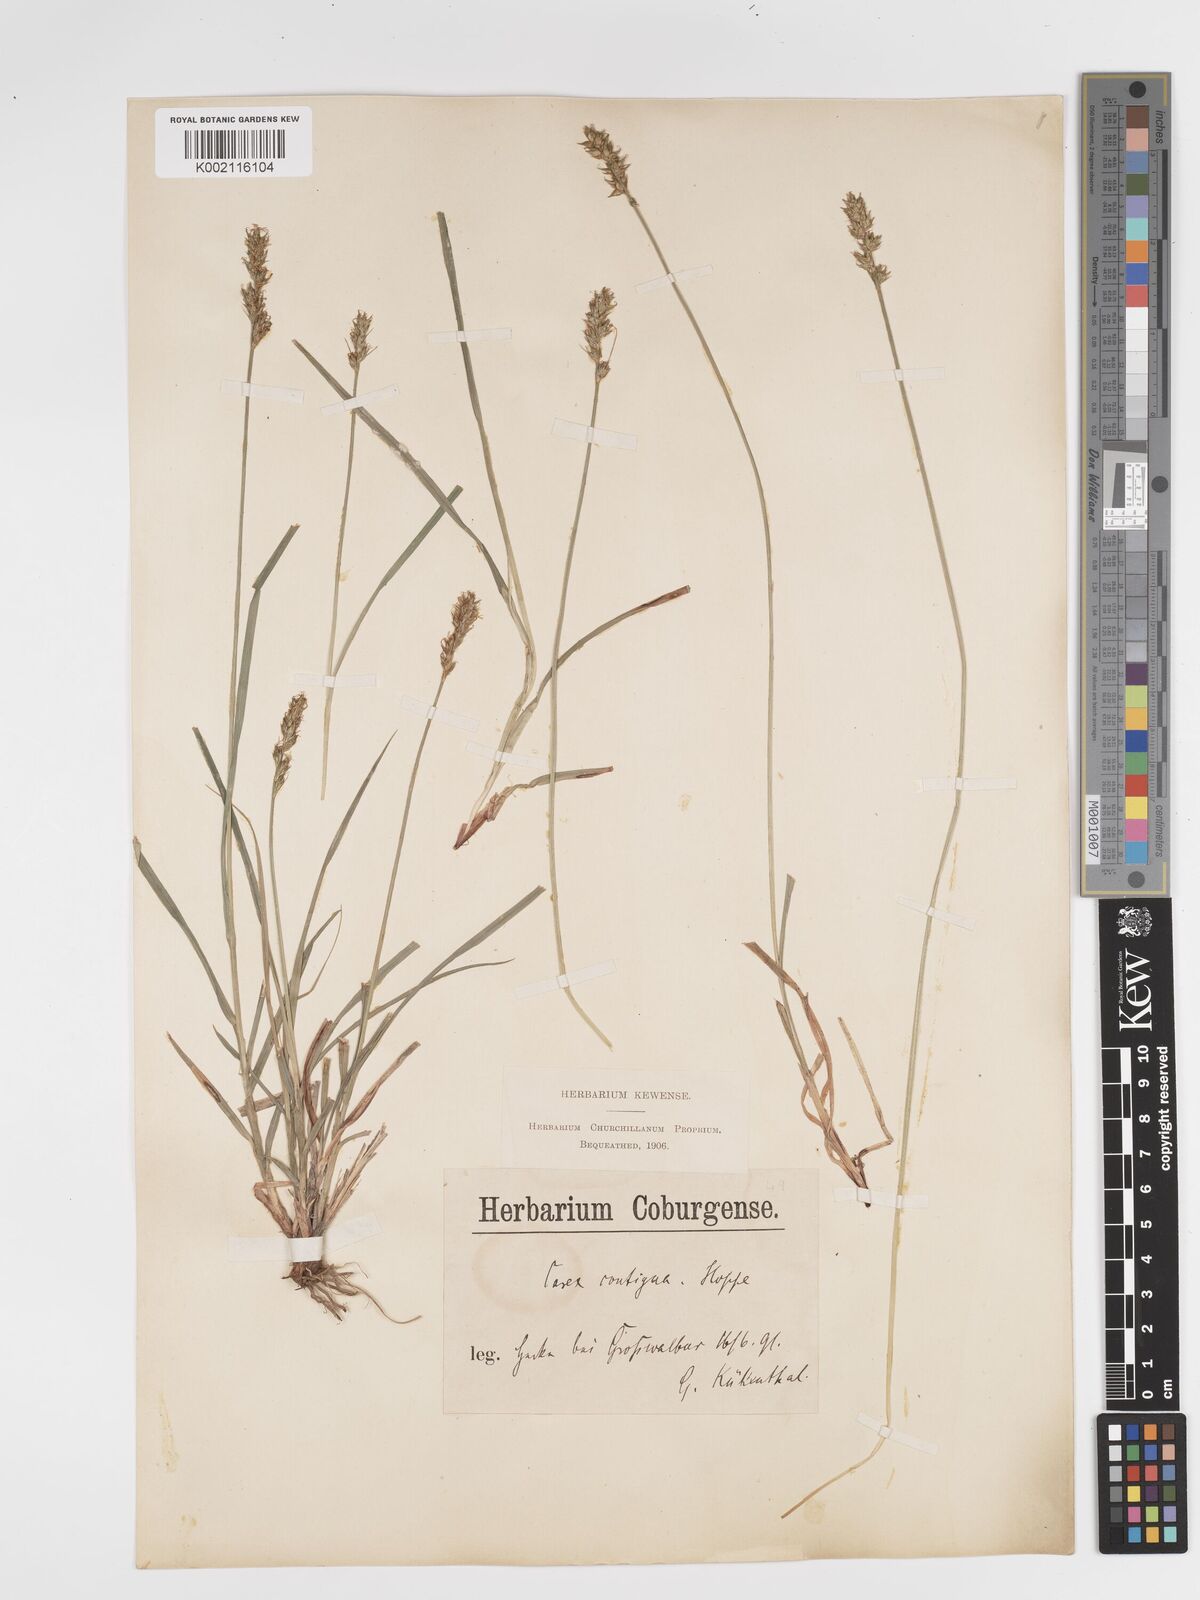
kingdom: Plantae
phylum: Tracheophyta
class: Liliopsida
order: Poales
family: Cyperaceae
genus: Carex
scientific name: Carex spicata
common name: Spiked sedge
